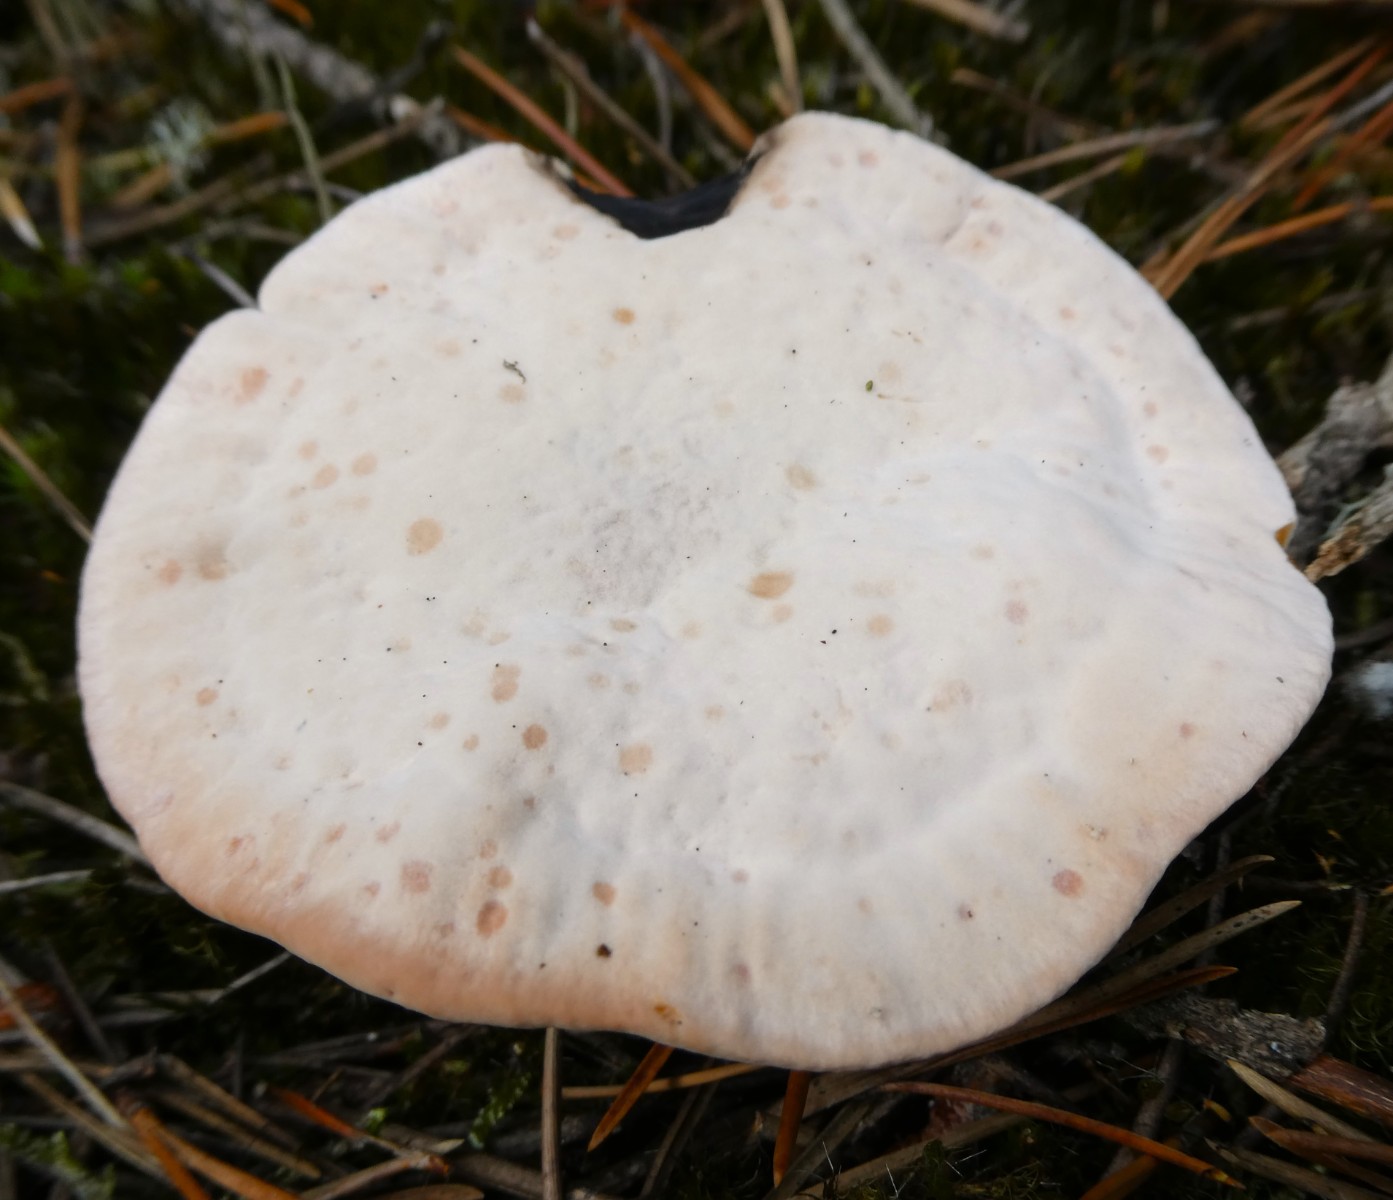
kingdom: Fungi
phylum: Basidiomycota
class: Agaricomycetes
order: Thelephorales
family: Bankeraceae
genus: Hydnellum
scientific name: Hydnellum peckii
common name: bitter korkpigsvamp
